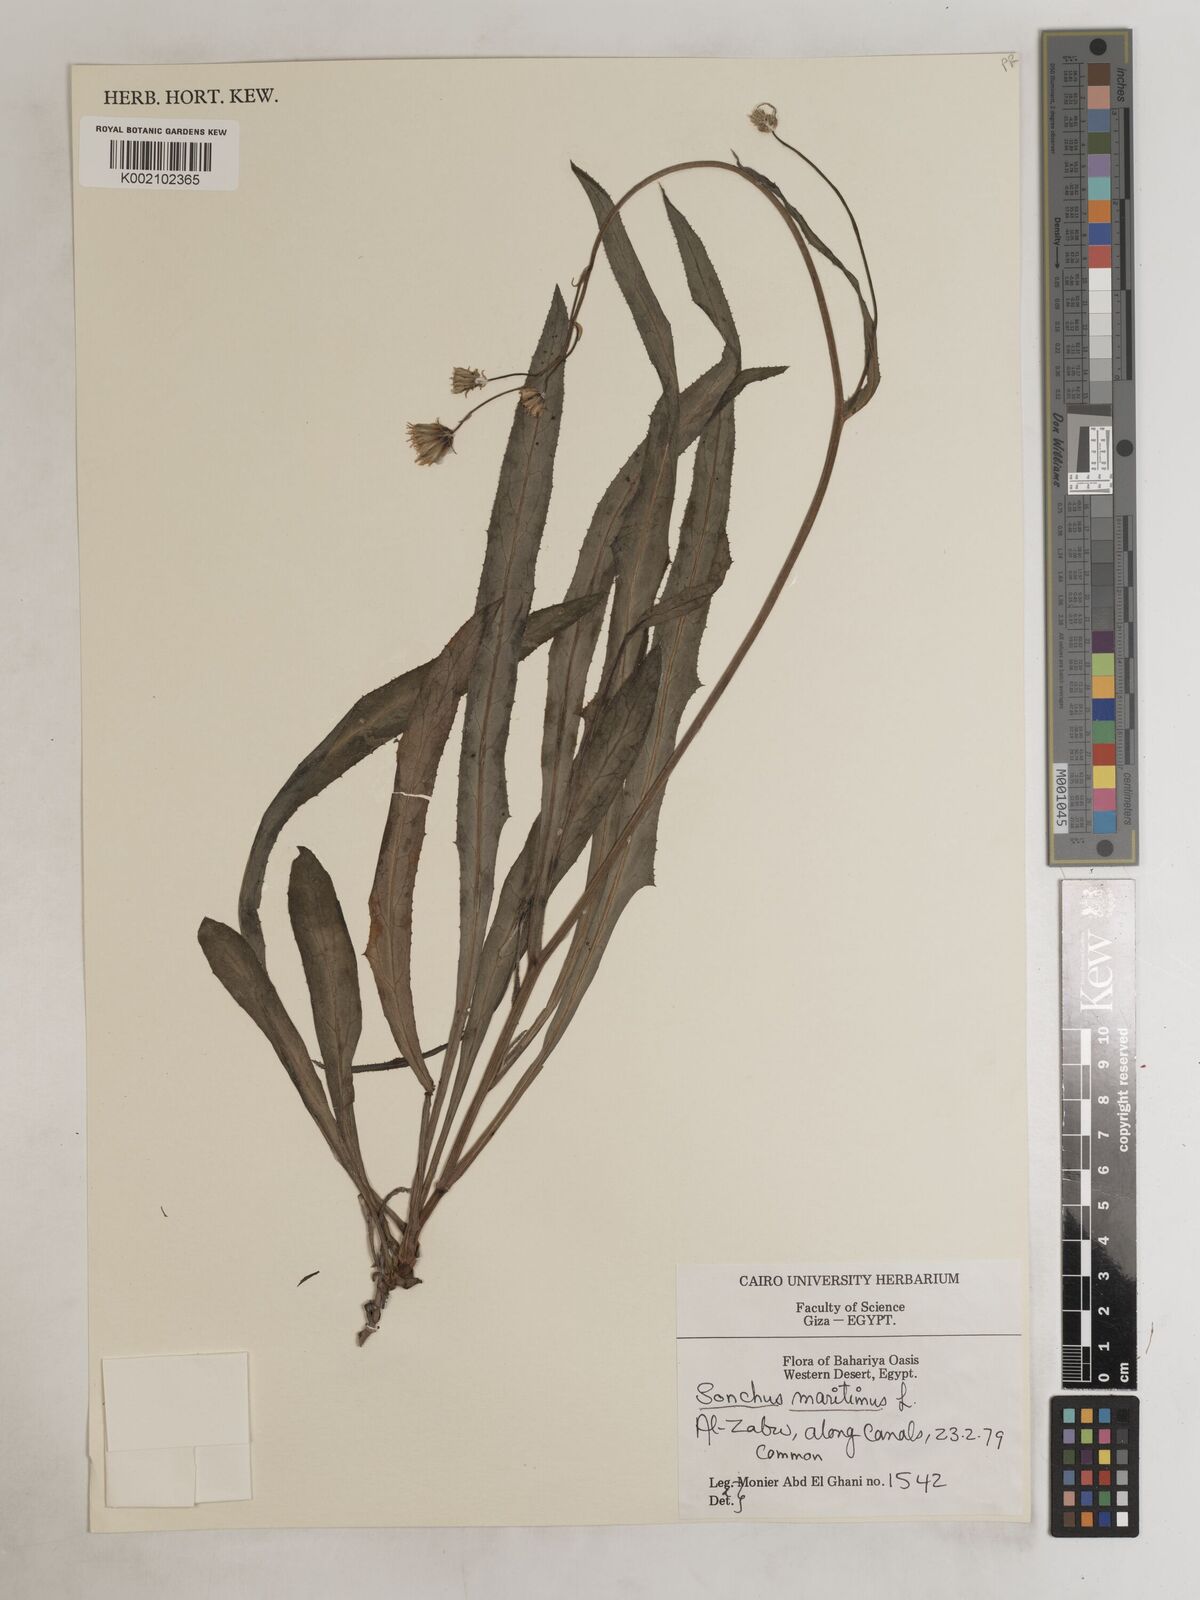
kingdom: Plantae
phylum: Tracheophyta
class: Magnoliopsida
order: Asterales
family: Asteraceae
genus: Sonchus
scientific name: Sonchus maritimus
